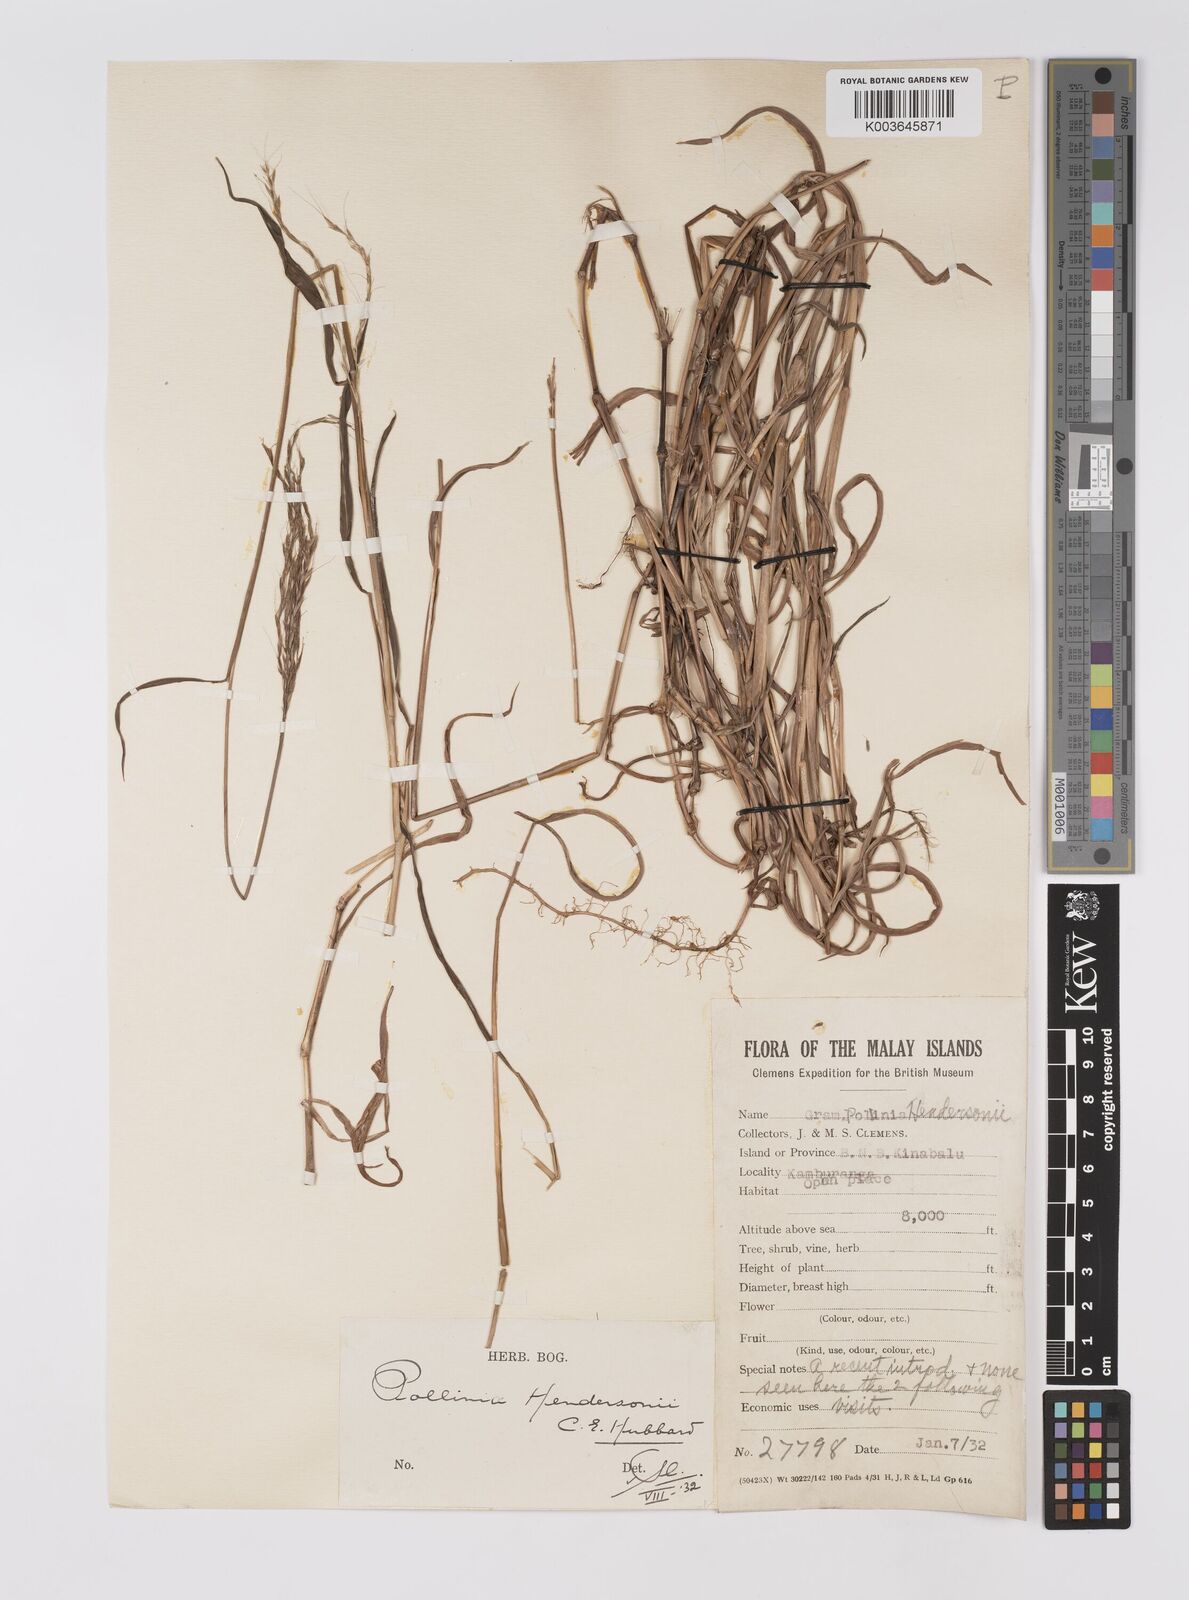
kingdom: Plantae
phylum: Tracheophyta
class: Liliopsida
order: Poales
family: Poaceae
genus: Microstegium
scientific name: Microstegium geniculatum
